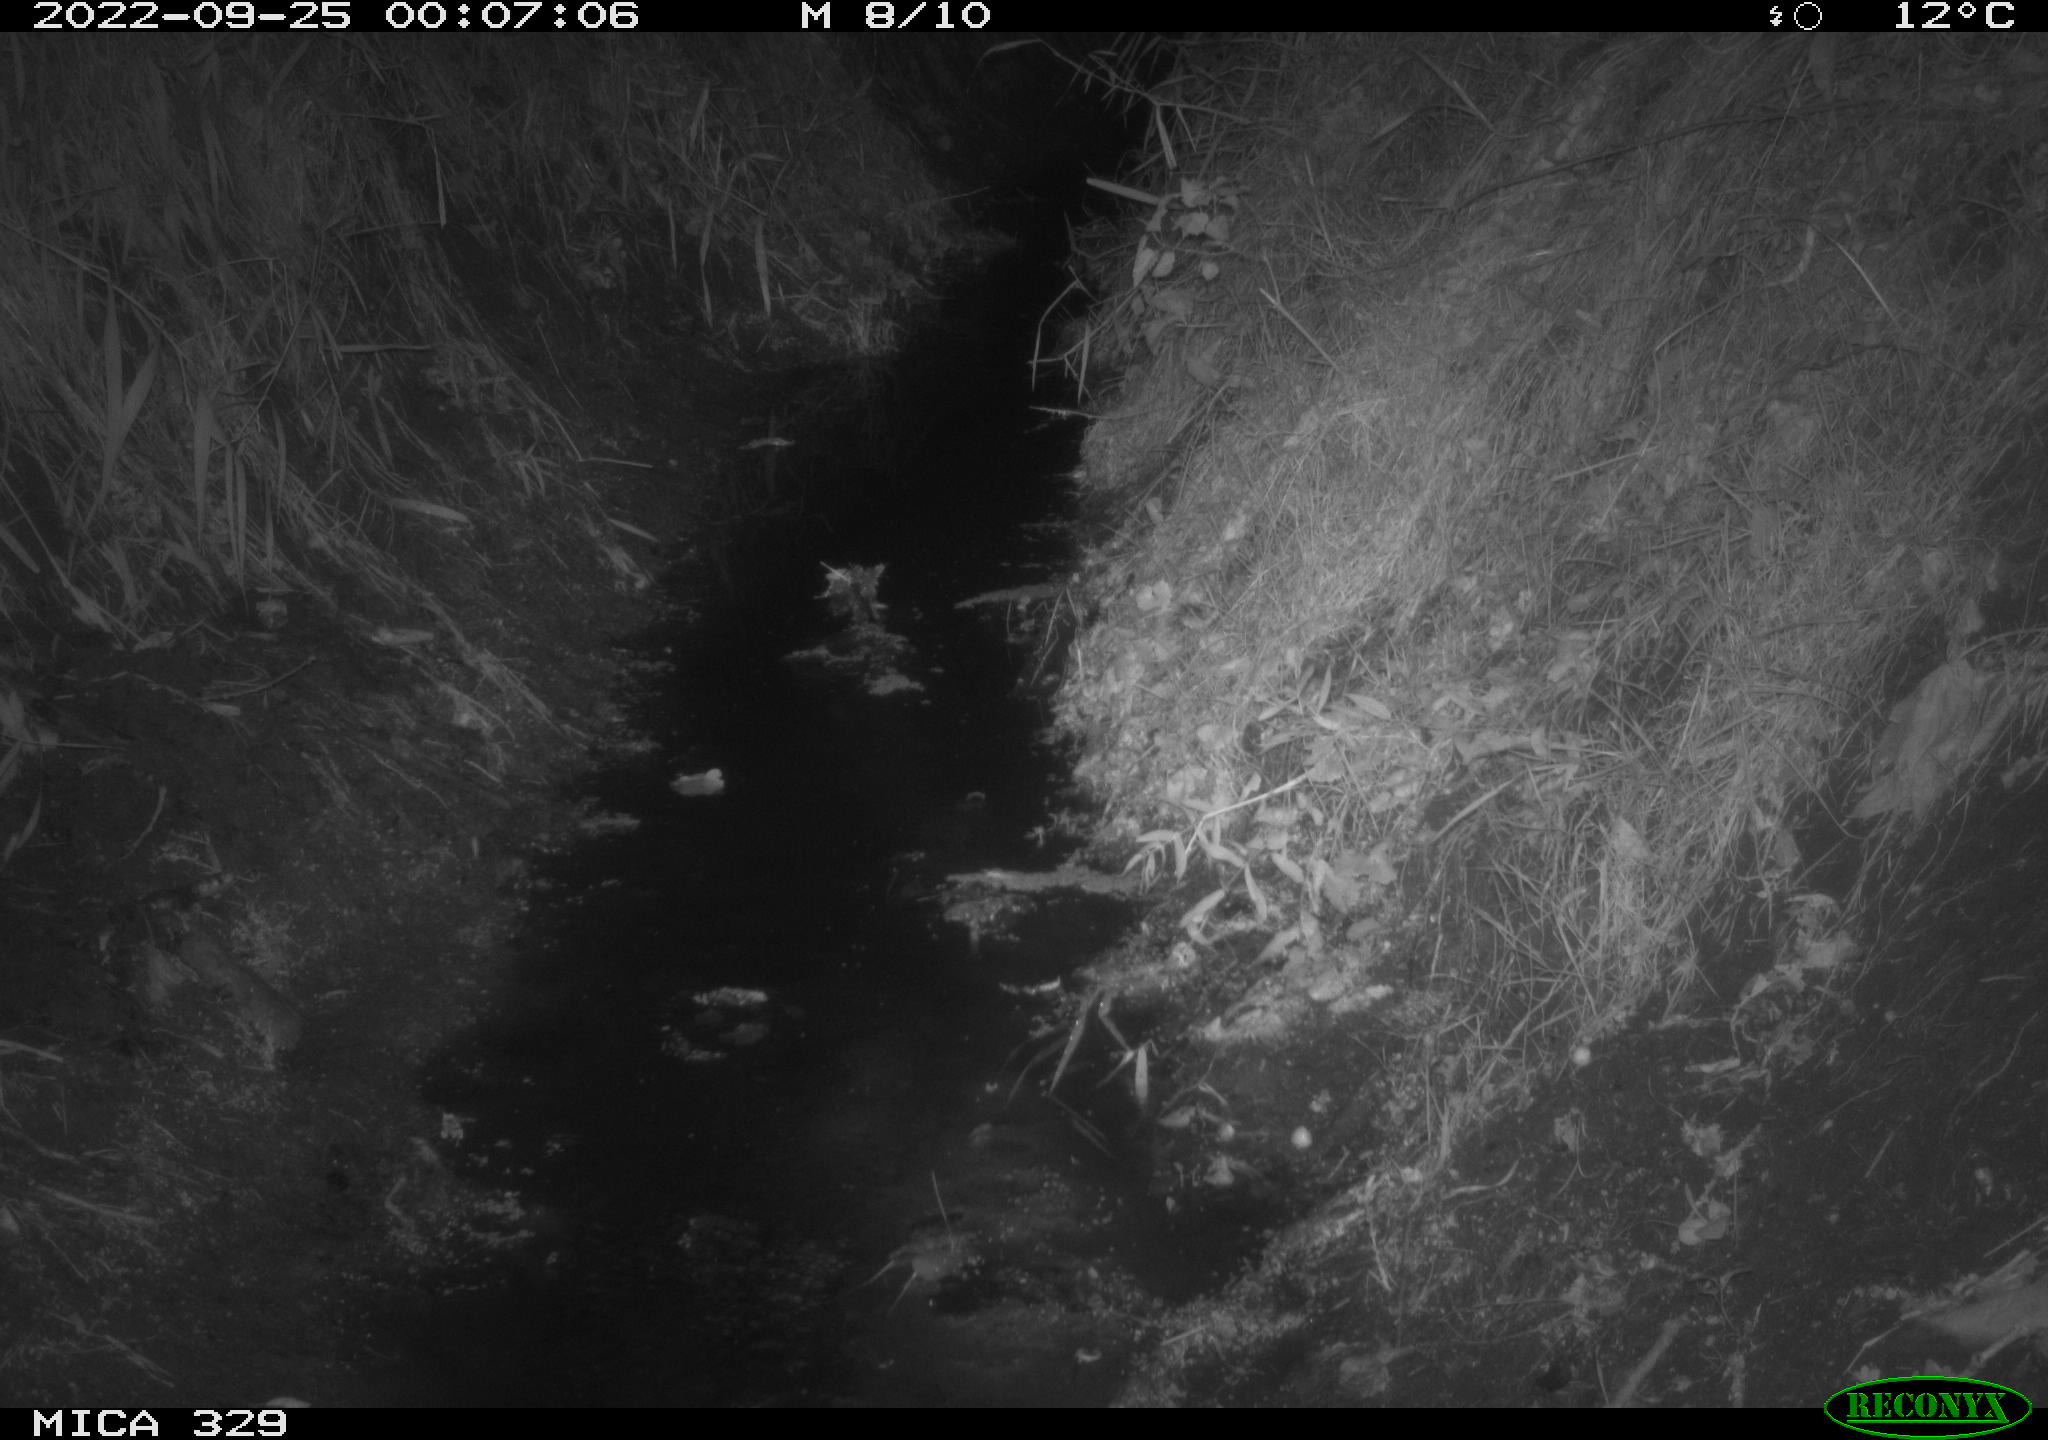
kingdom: Animalia
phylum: Chordata
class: Mammalia
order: Carnivora
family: Mustelidae
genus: Mustela
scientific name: Mustela putorius
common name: European polecat
